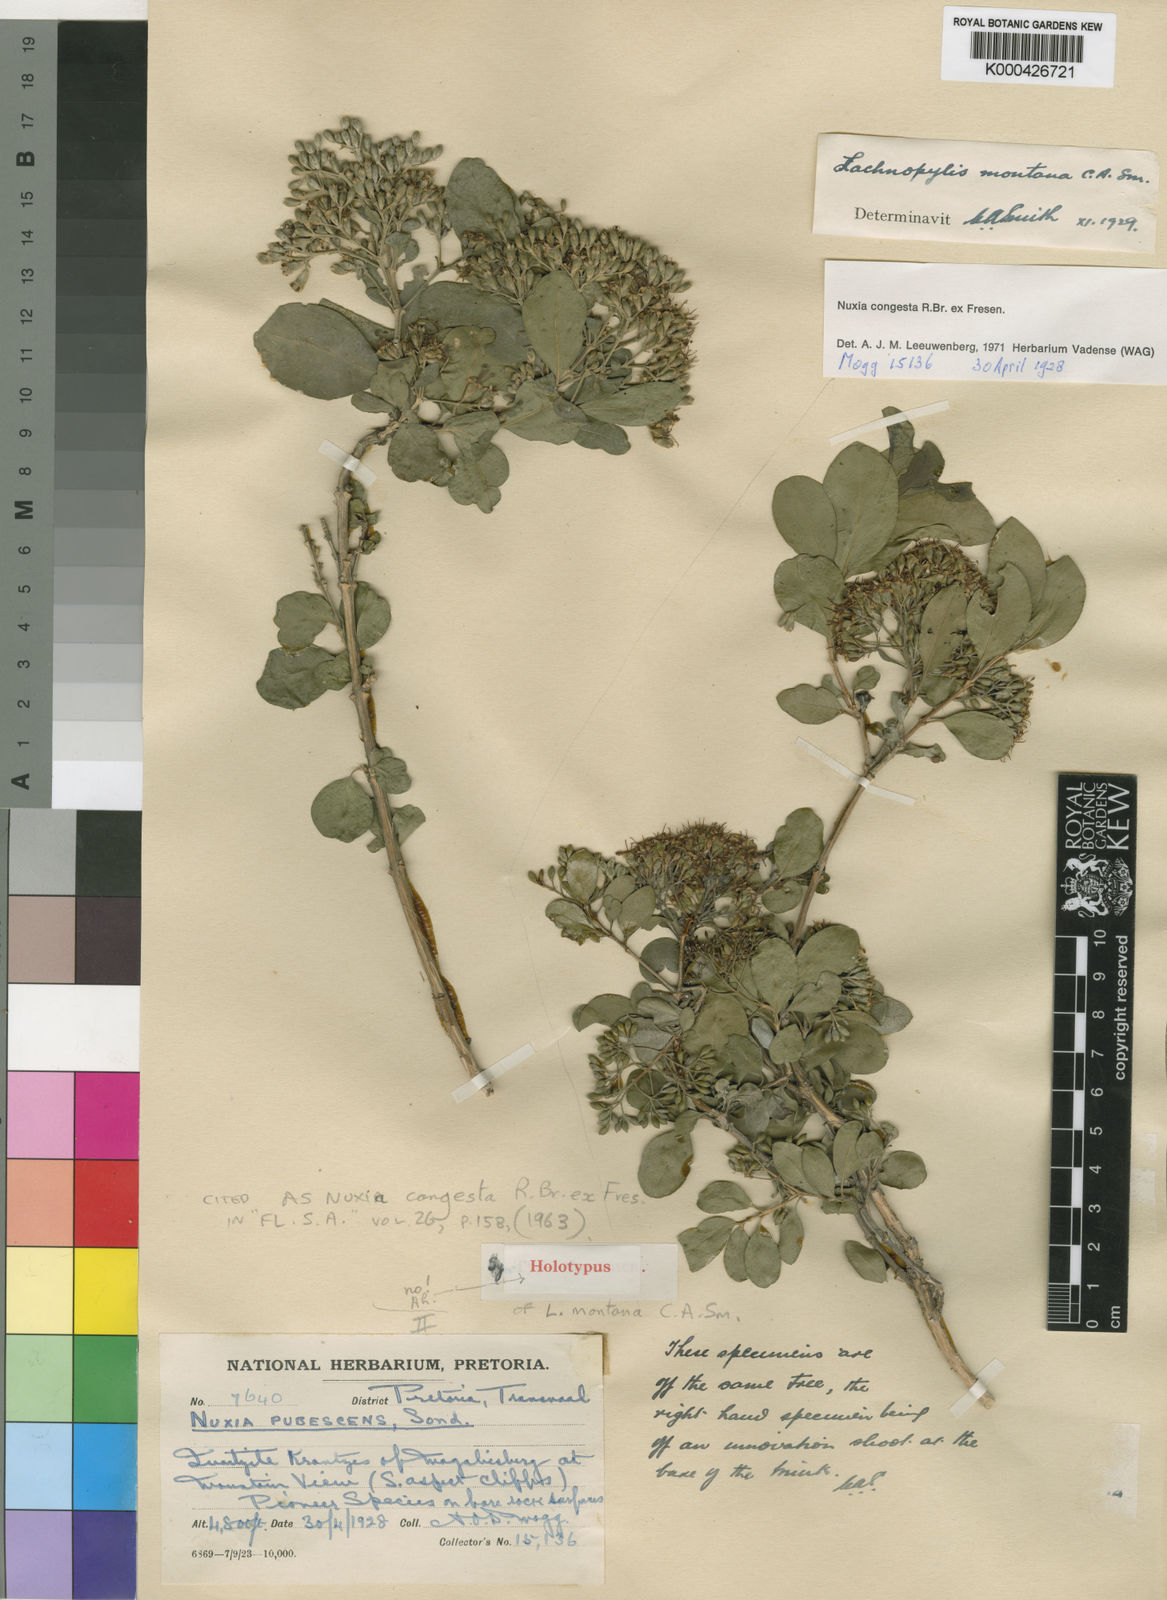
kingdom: Plantae
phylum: Tracheophyta
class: Magnoliopsida
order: Lamiales
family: Stilbaceae
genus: Nuxia
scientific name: Nuxia congesta
